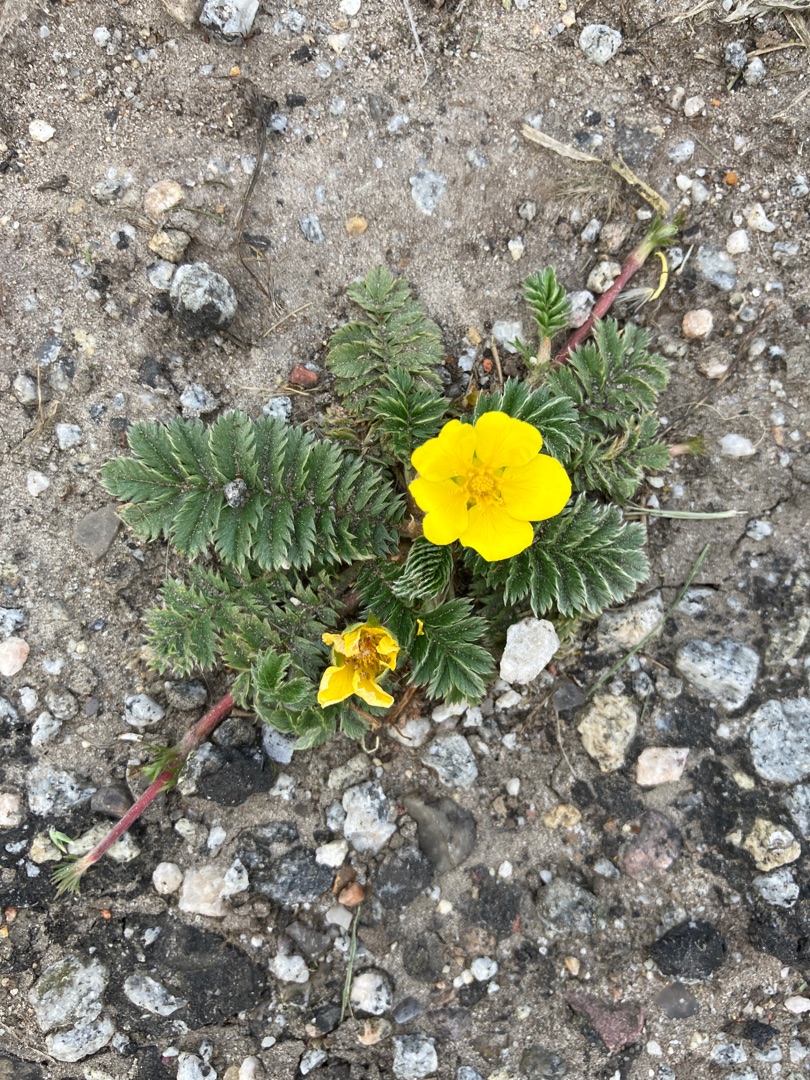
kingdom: Plantae
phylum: Tracheophyta
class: Magnoliopsida
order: Rosales
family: Rosaceae
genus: Argentina
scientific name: Argentina anserina
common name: Gåsepotentil
